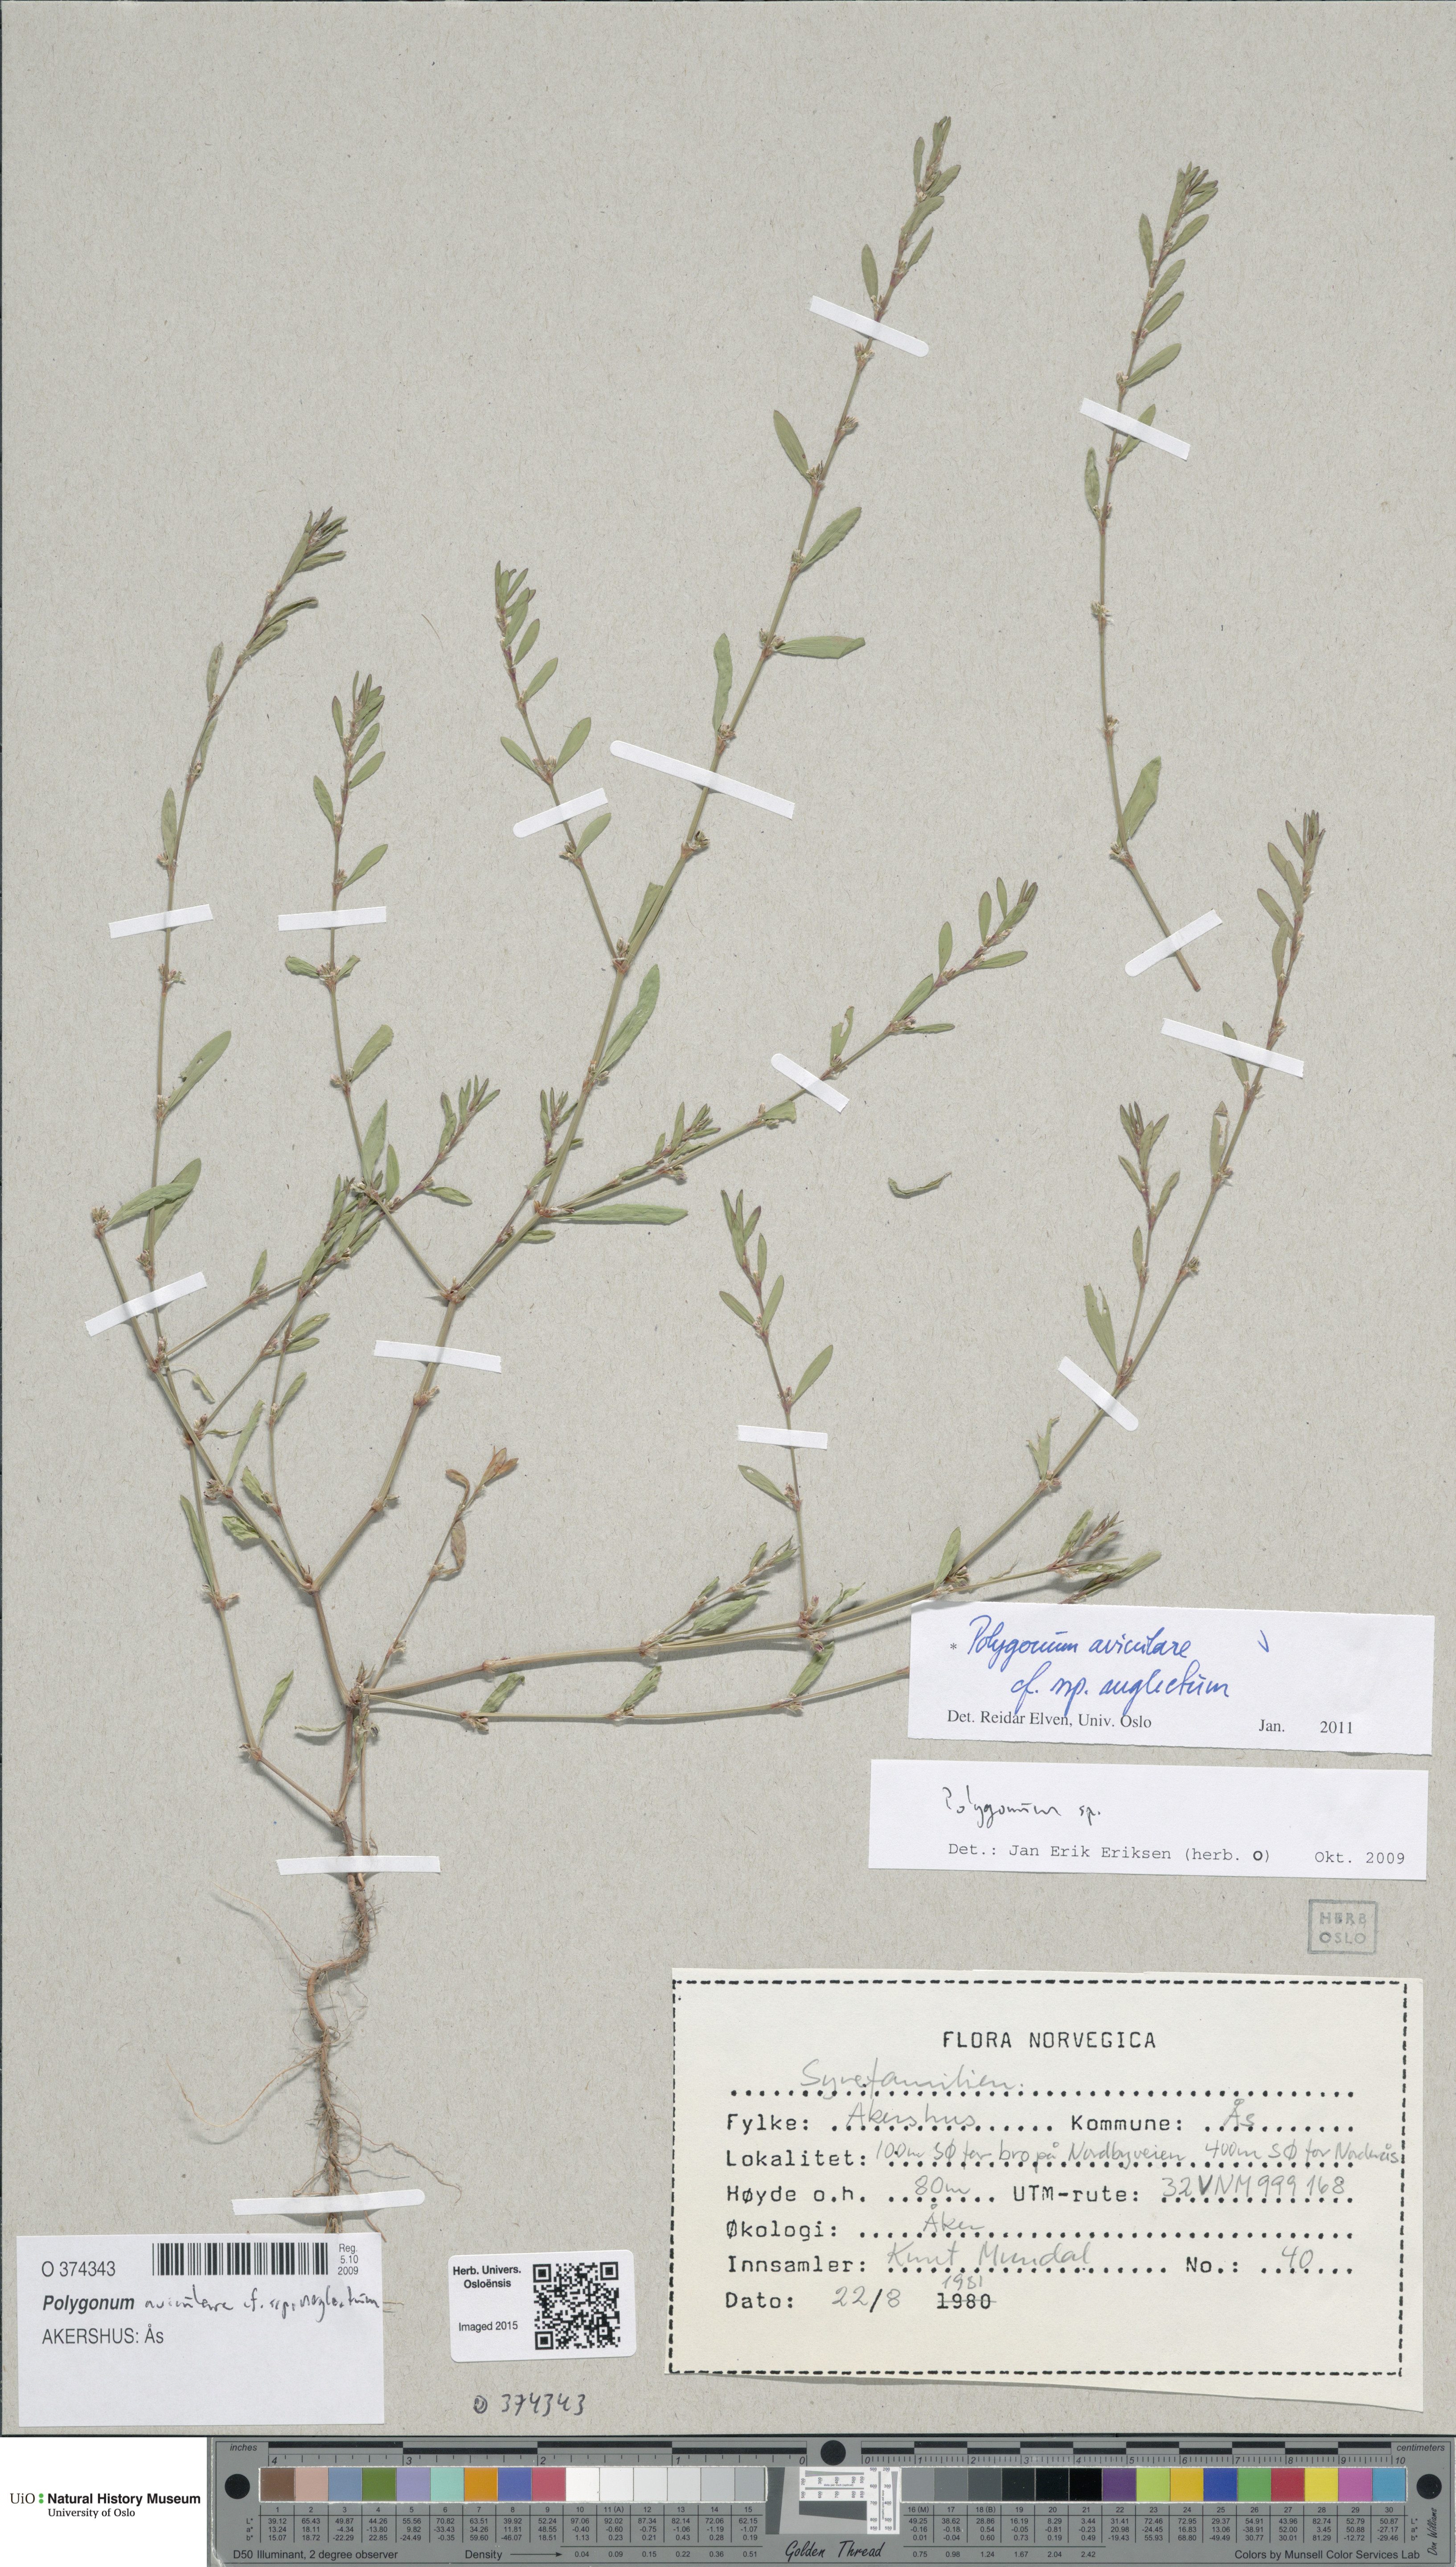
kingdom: Plantae
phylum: Tracheophyta
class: Magnoliopsida
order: Caryophyllales
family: Polygonaceae
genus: Polygonum
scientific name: Polygonum aviculare
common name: Prostrate knotweed
